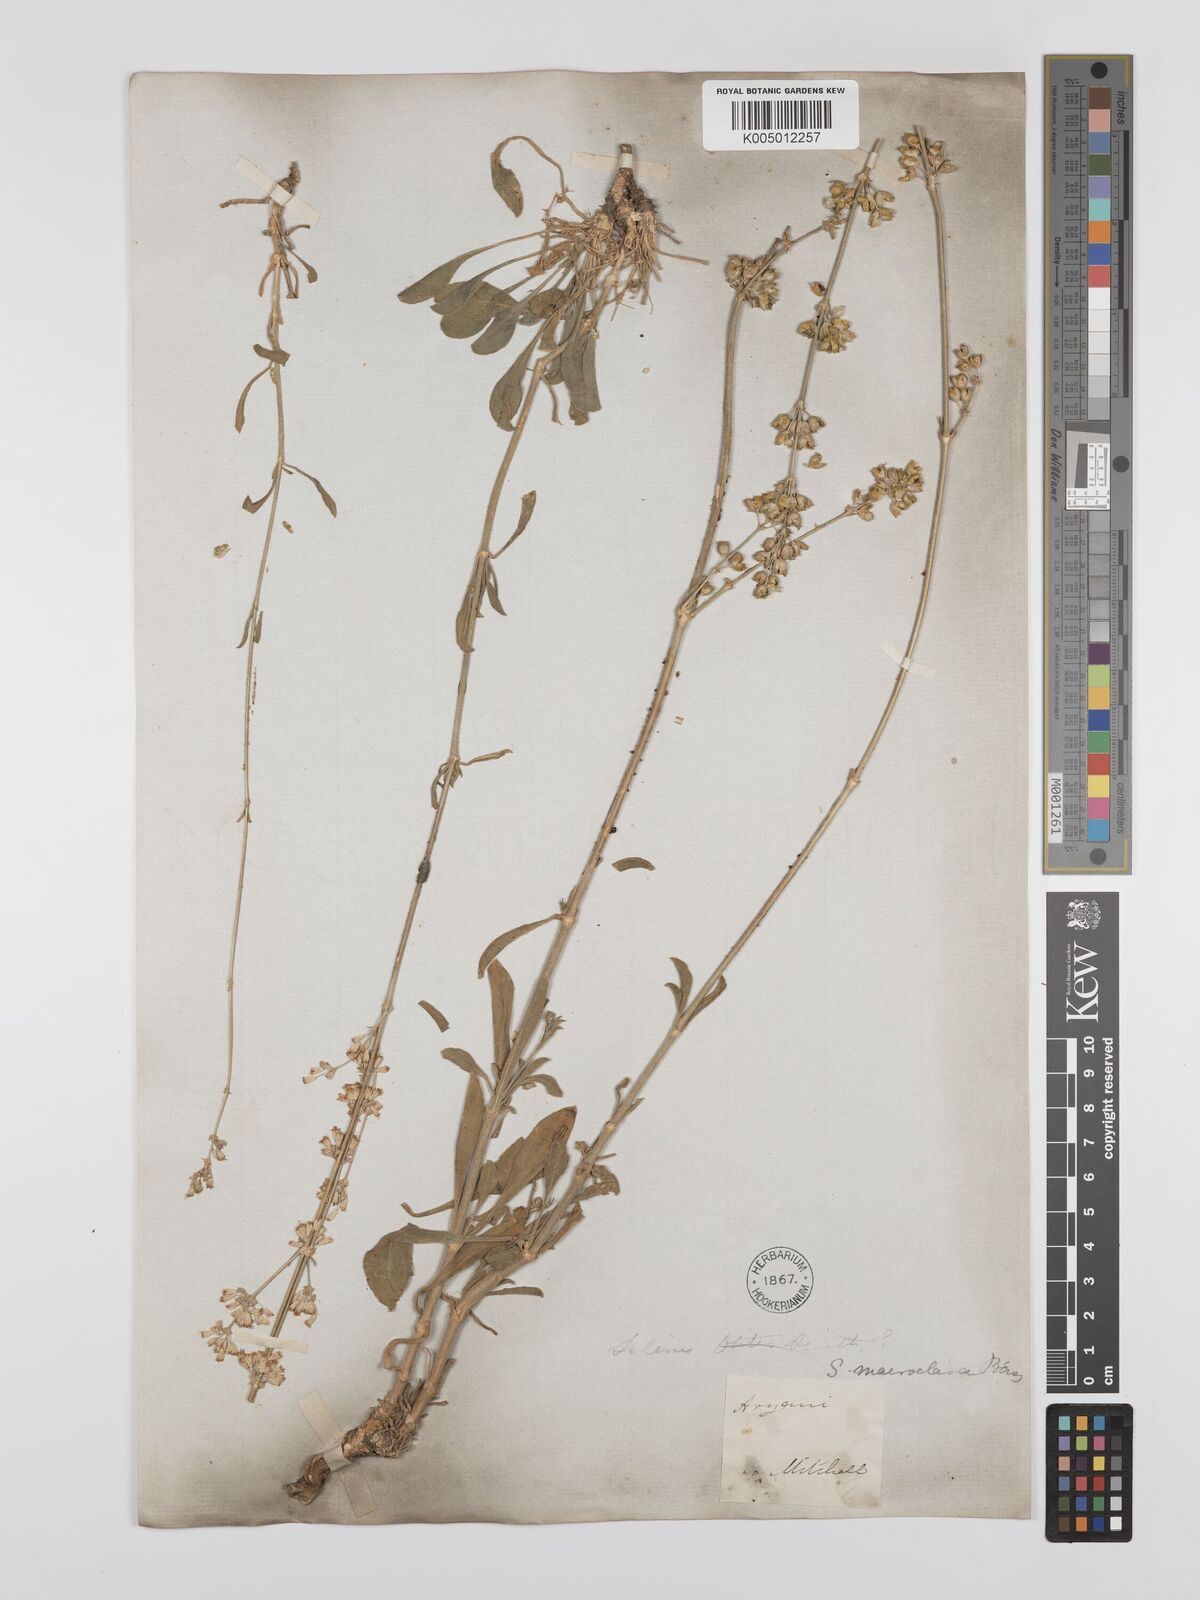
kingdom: Plantae
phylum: Tracheophyta
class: Magnoliopsida
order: Caryophyllales
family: Caryophyllaceae
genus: Silene
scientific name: Silene densiflora
